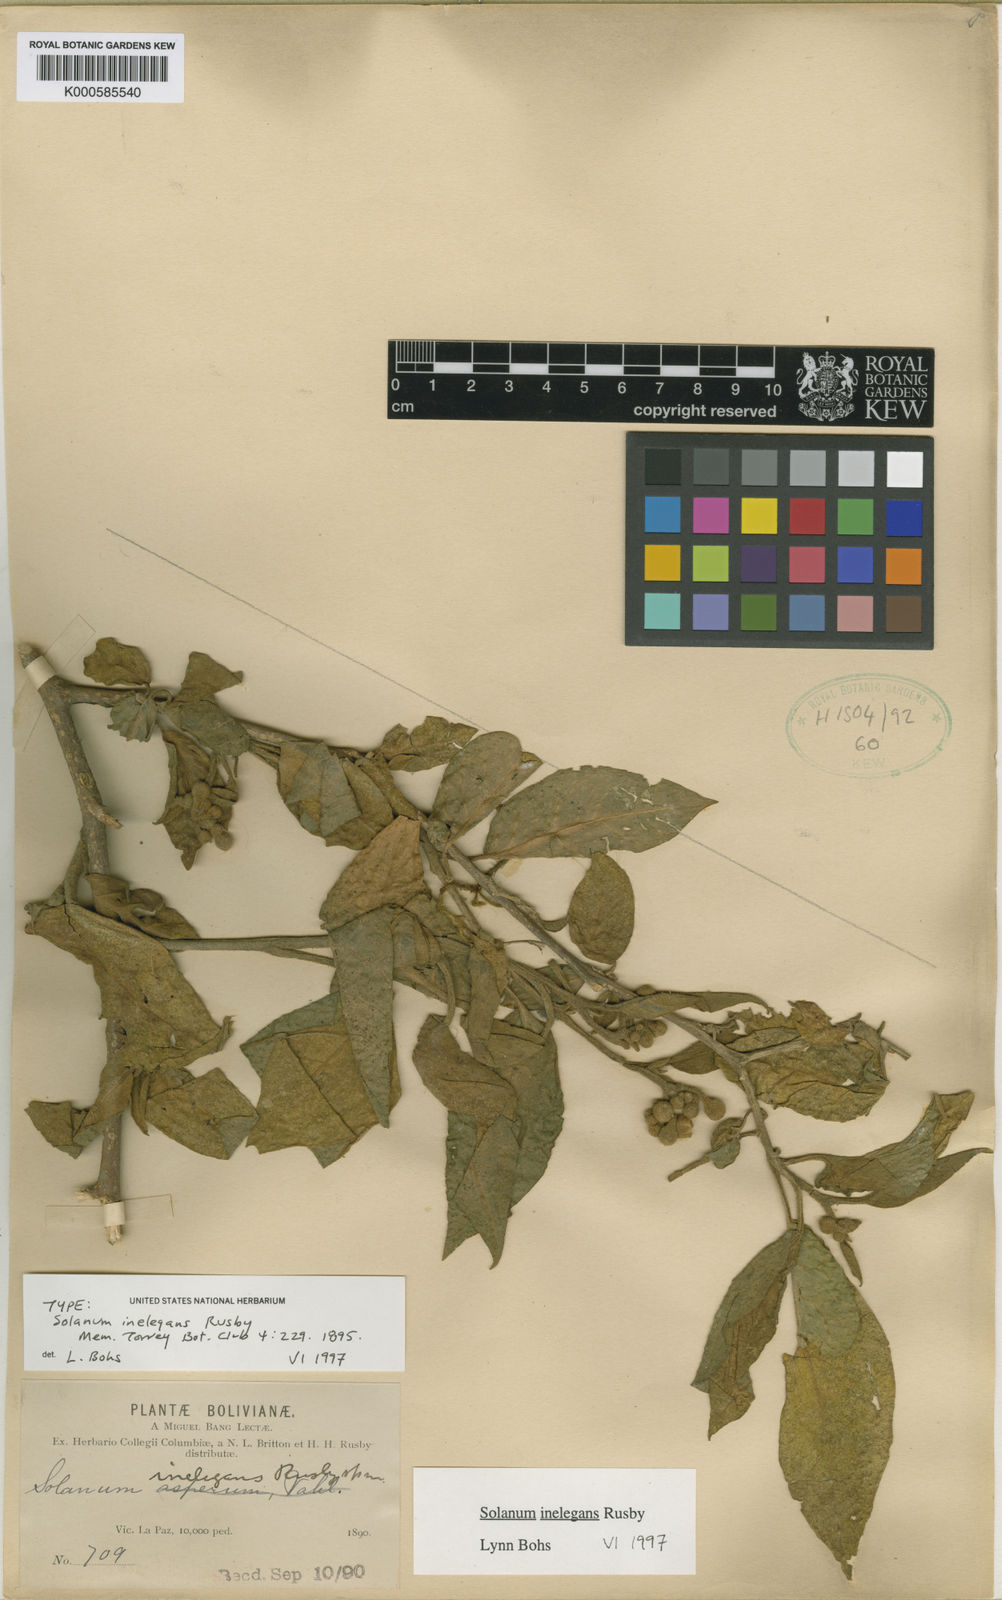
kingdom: Plantae
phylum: Tracheophyta
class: Magnoliopsida
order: Solanales
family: Solanaceae
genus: Solanum
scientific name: Solanum inelegans
